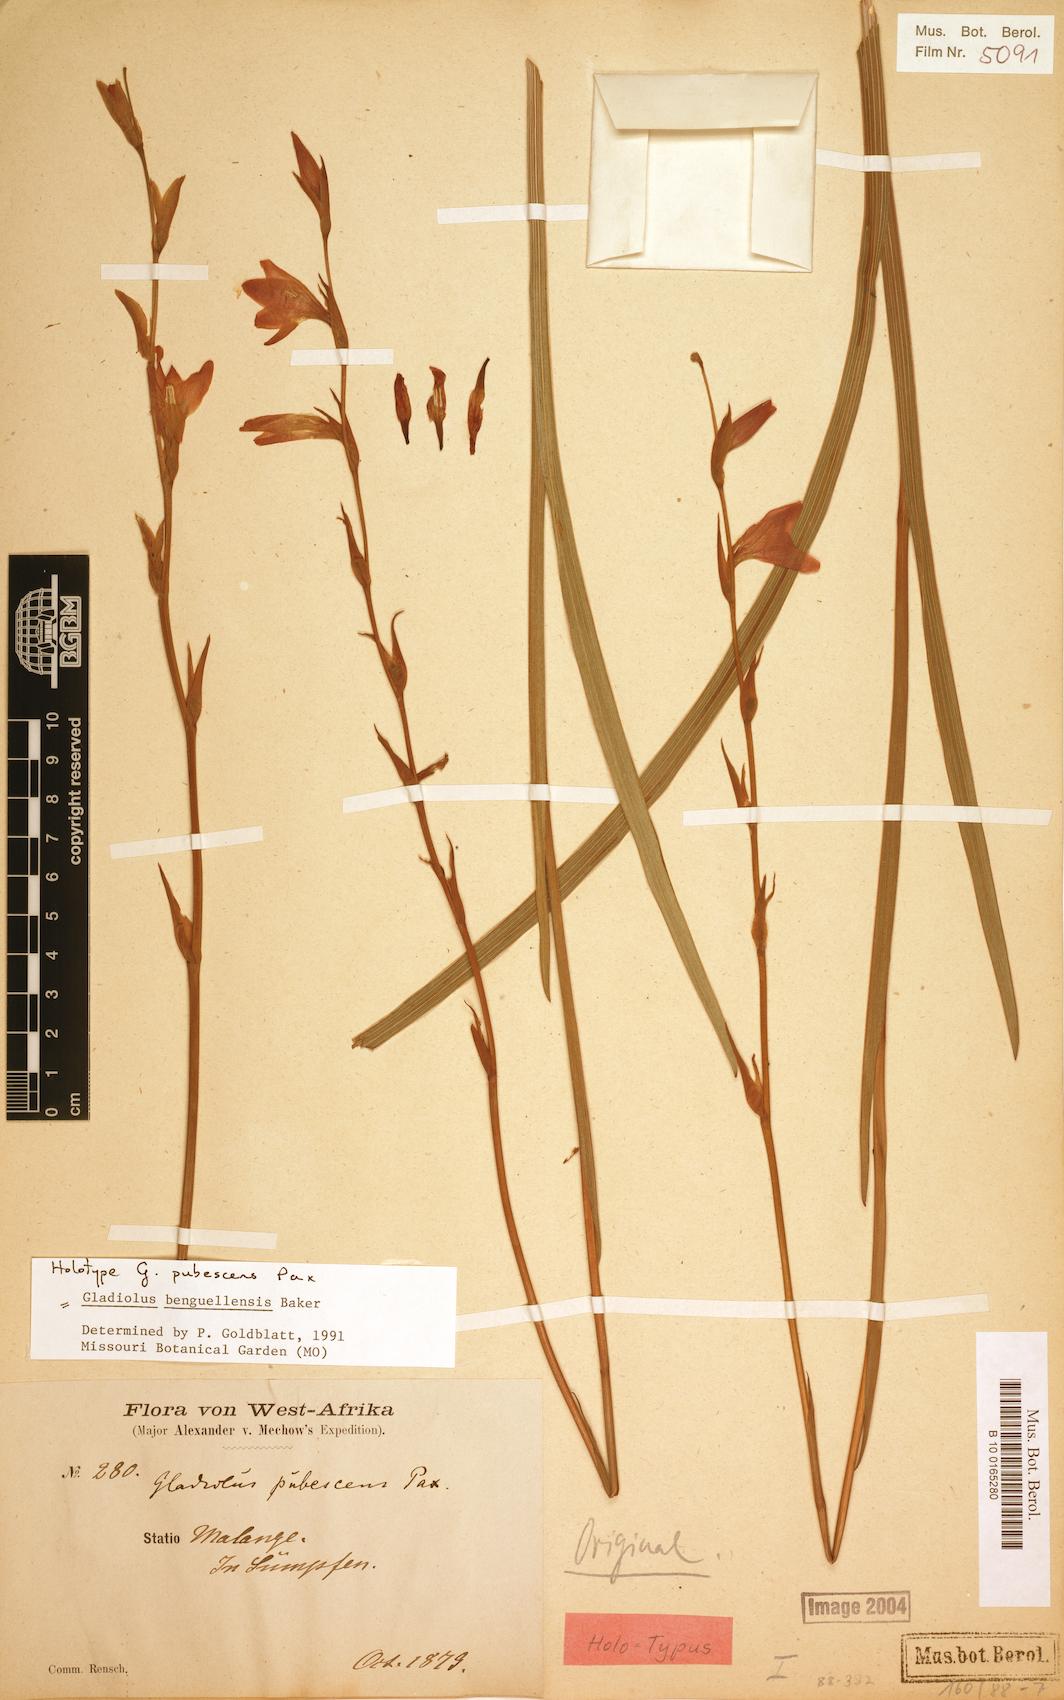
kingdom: Plantae
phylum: Tracheophyta
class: Liliopsida
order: Asparagales
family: Iridaceae
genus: Gladiolus
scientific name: Gladiolus benguellensis
